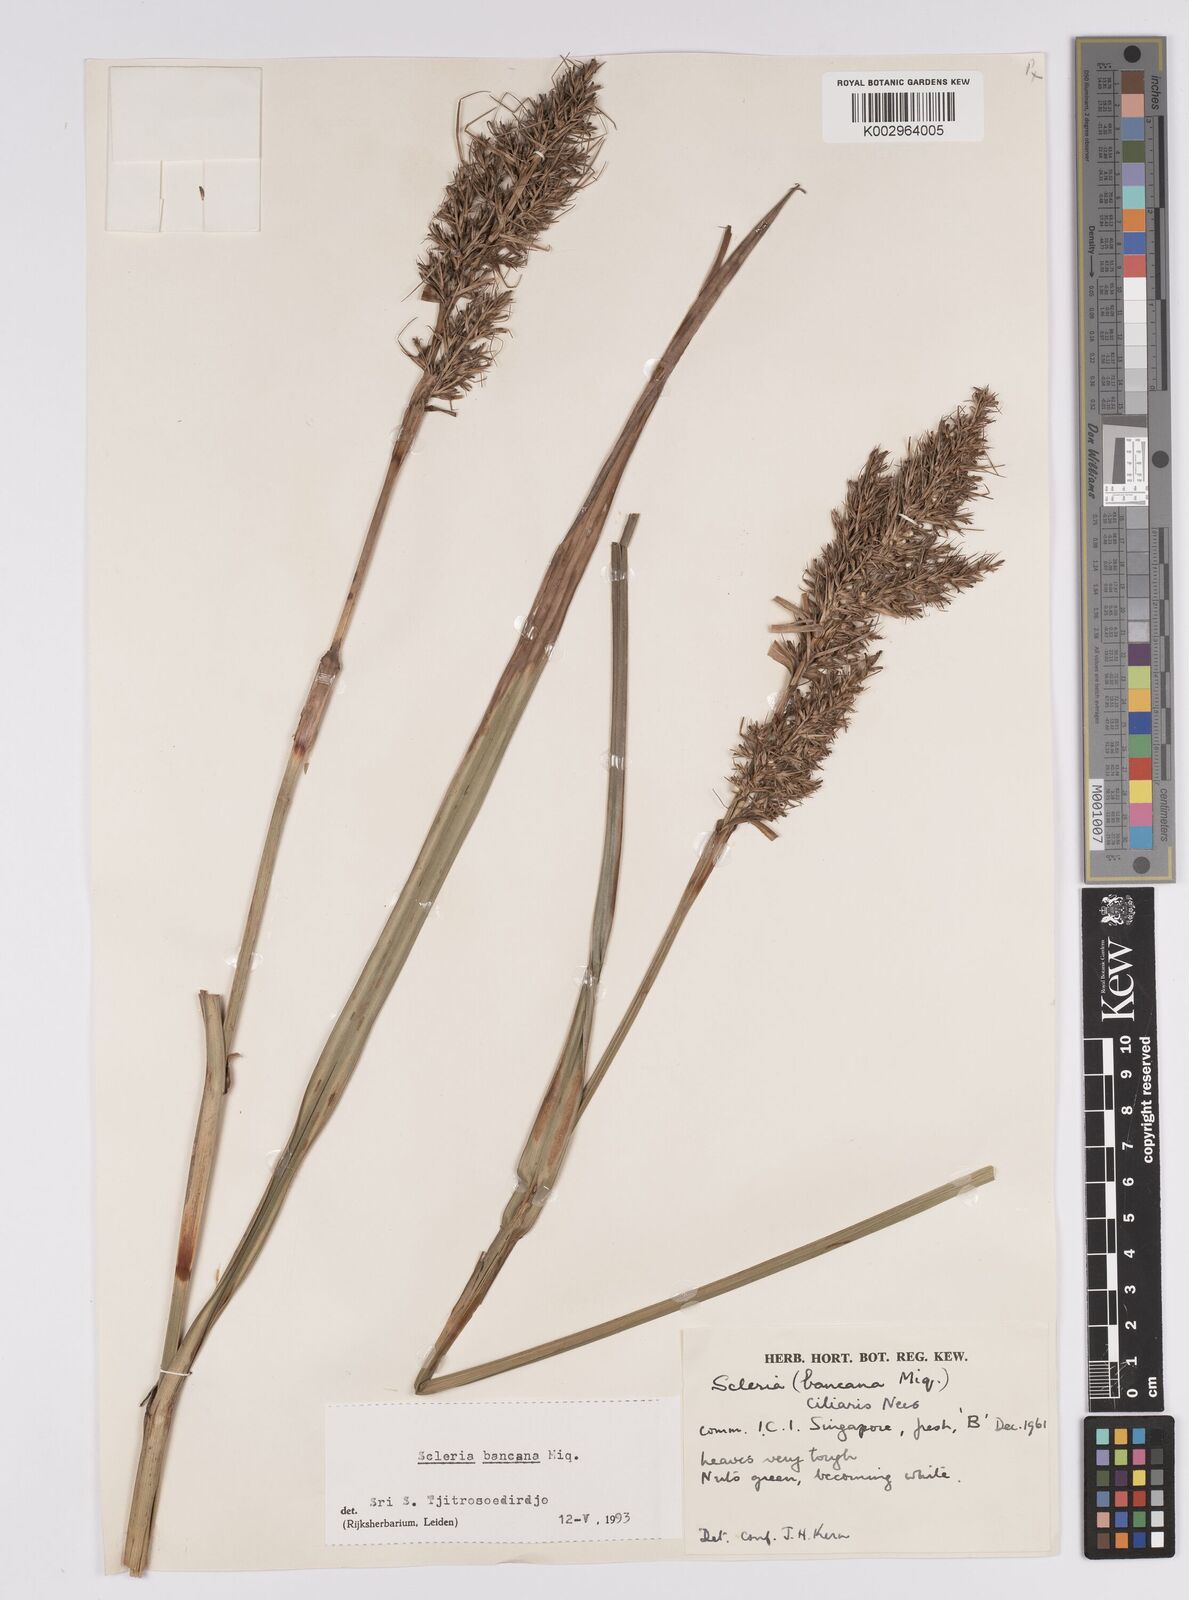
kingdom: Plantae
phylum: Tracheophyta
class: Liliopsida
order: Poales
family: Cyperaceae
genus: Scleria
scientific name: Scleria ciliaris
